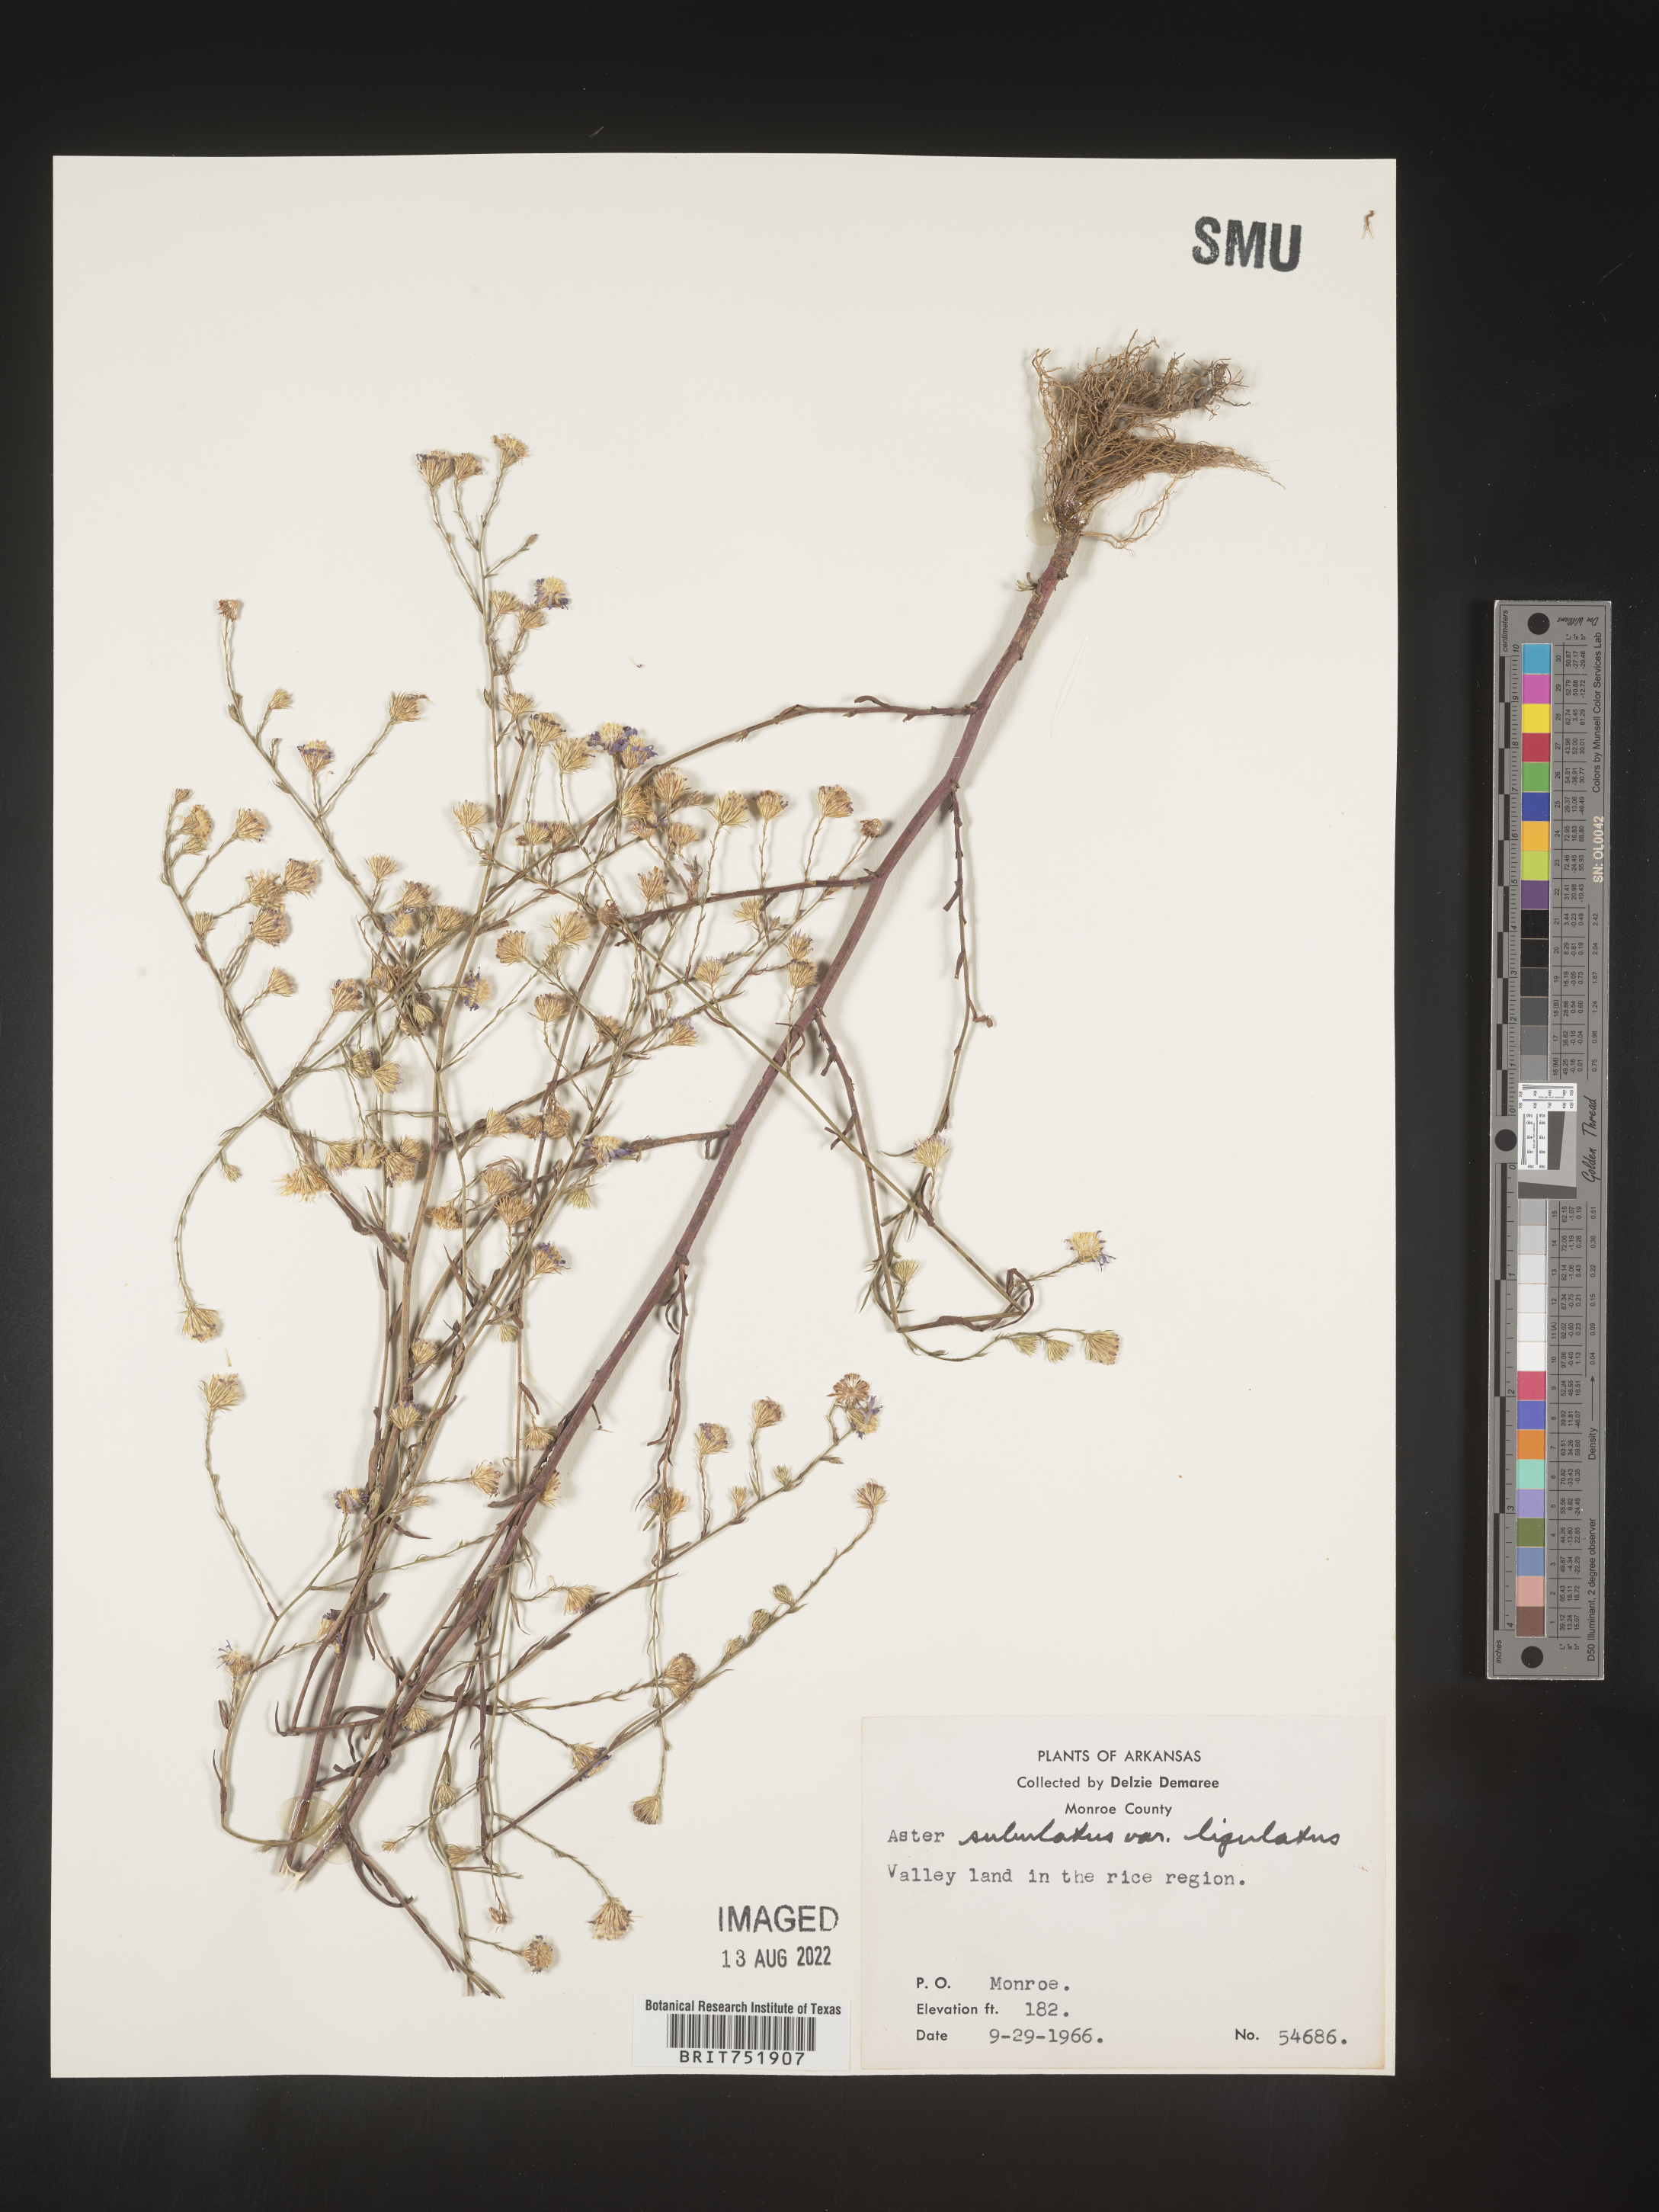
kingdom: Plantae
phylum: Tracheophyta
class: Magnoliopsida
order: Asterales
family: Asteraceae
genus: Symphyotrichum
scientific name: Symphyotrichum divaricatum
